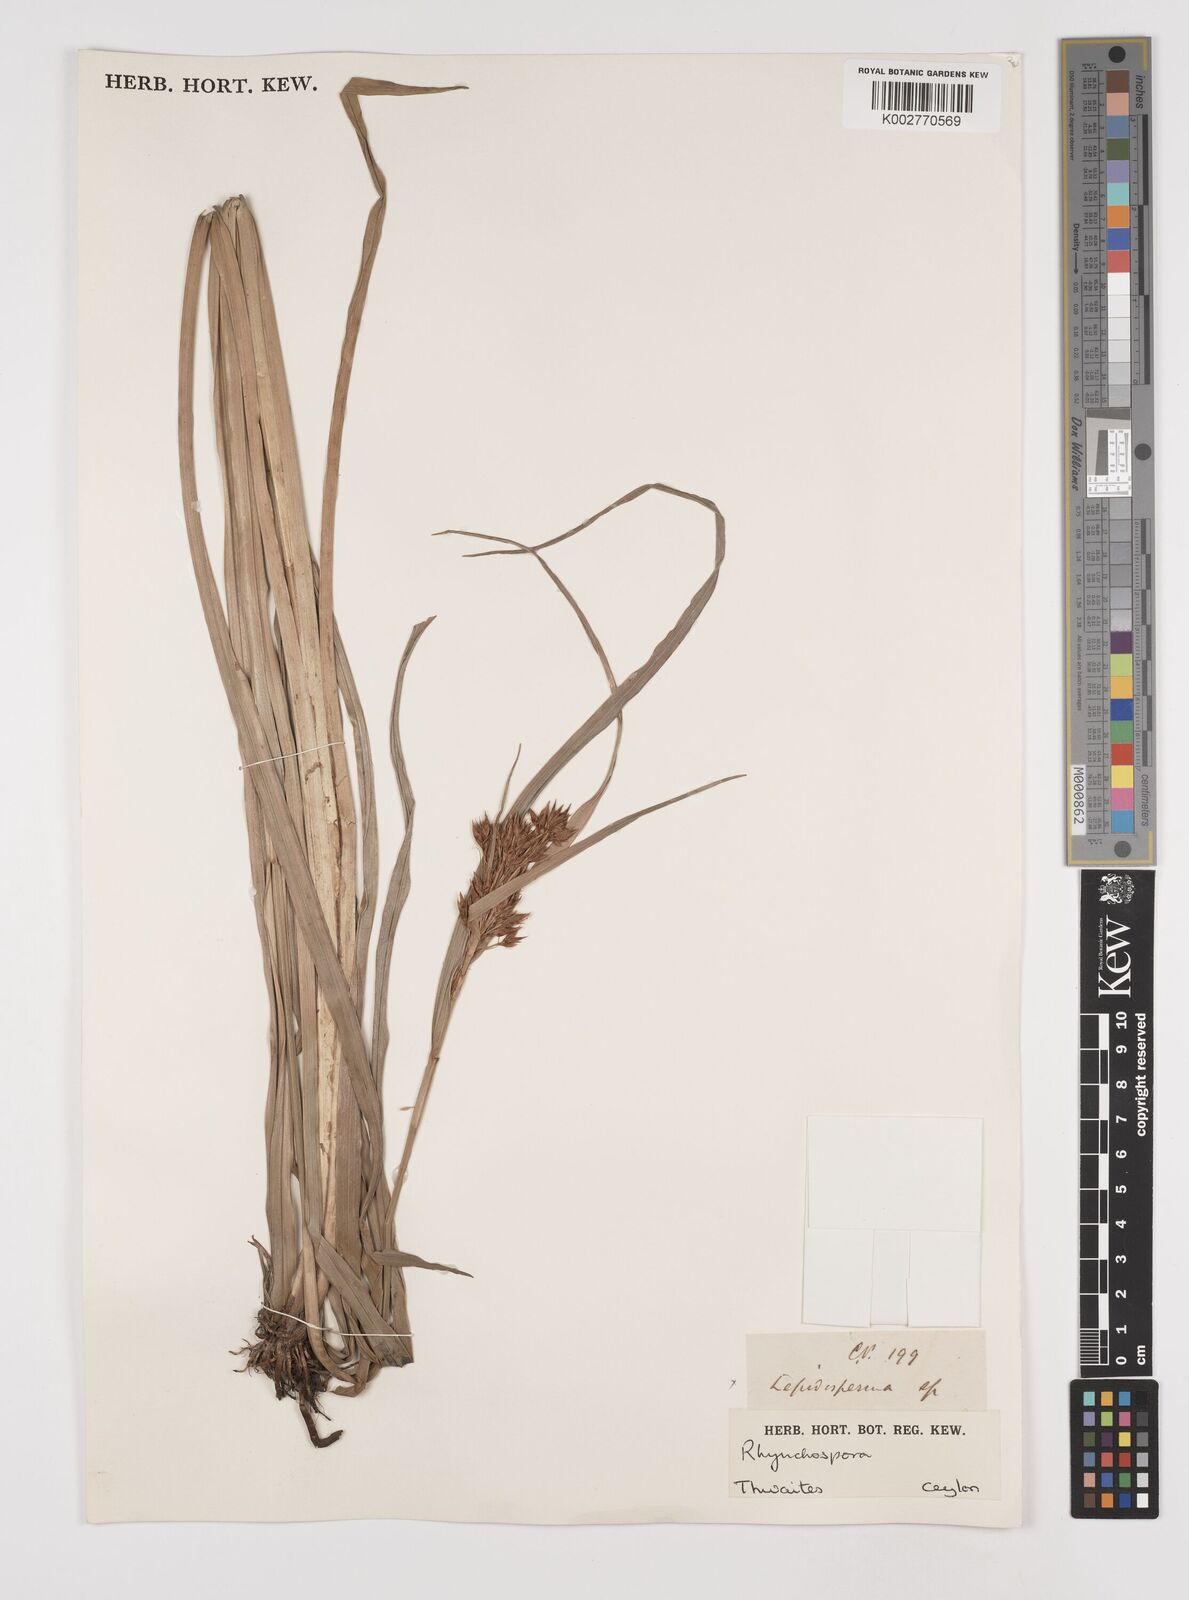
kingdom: Plantae
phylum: Tracheophyta
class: Liliopsida
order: Poales
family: Cyperaceae
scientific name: Cyperaceae
